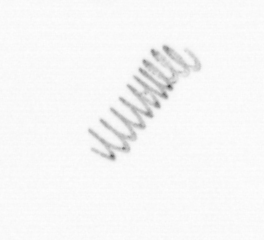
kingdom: Chromista
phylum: Ochrophyta
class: Bacillariophyceae
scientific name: Bacillariophyceae
